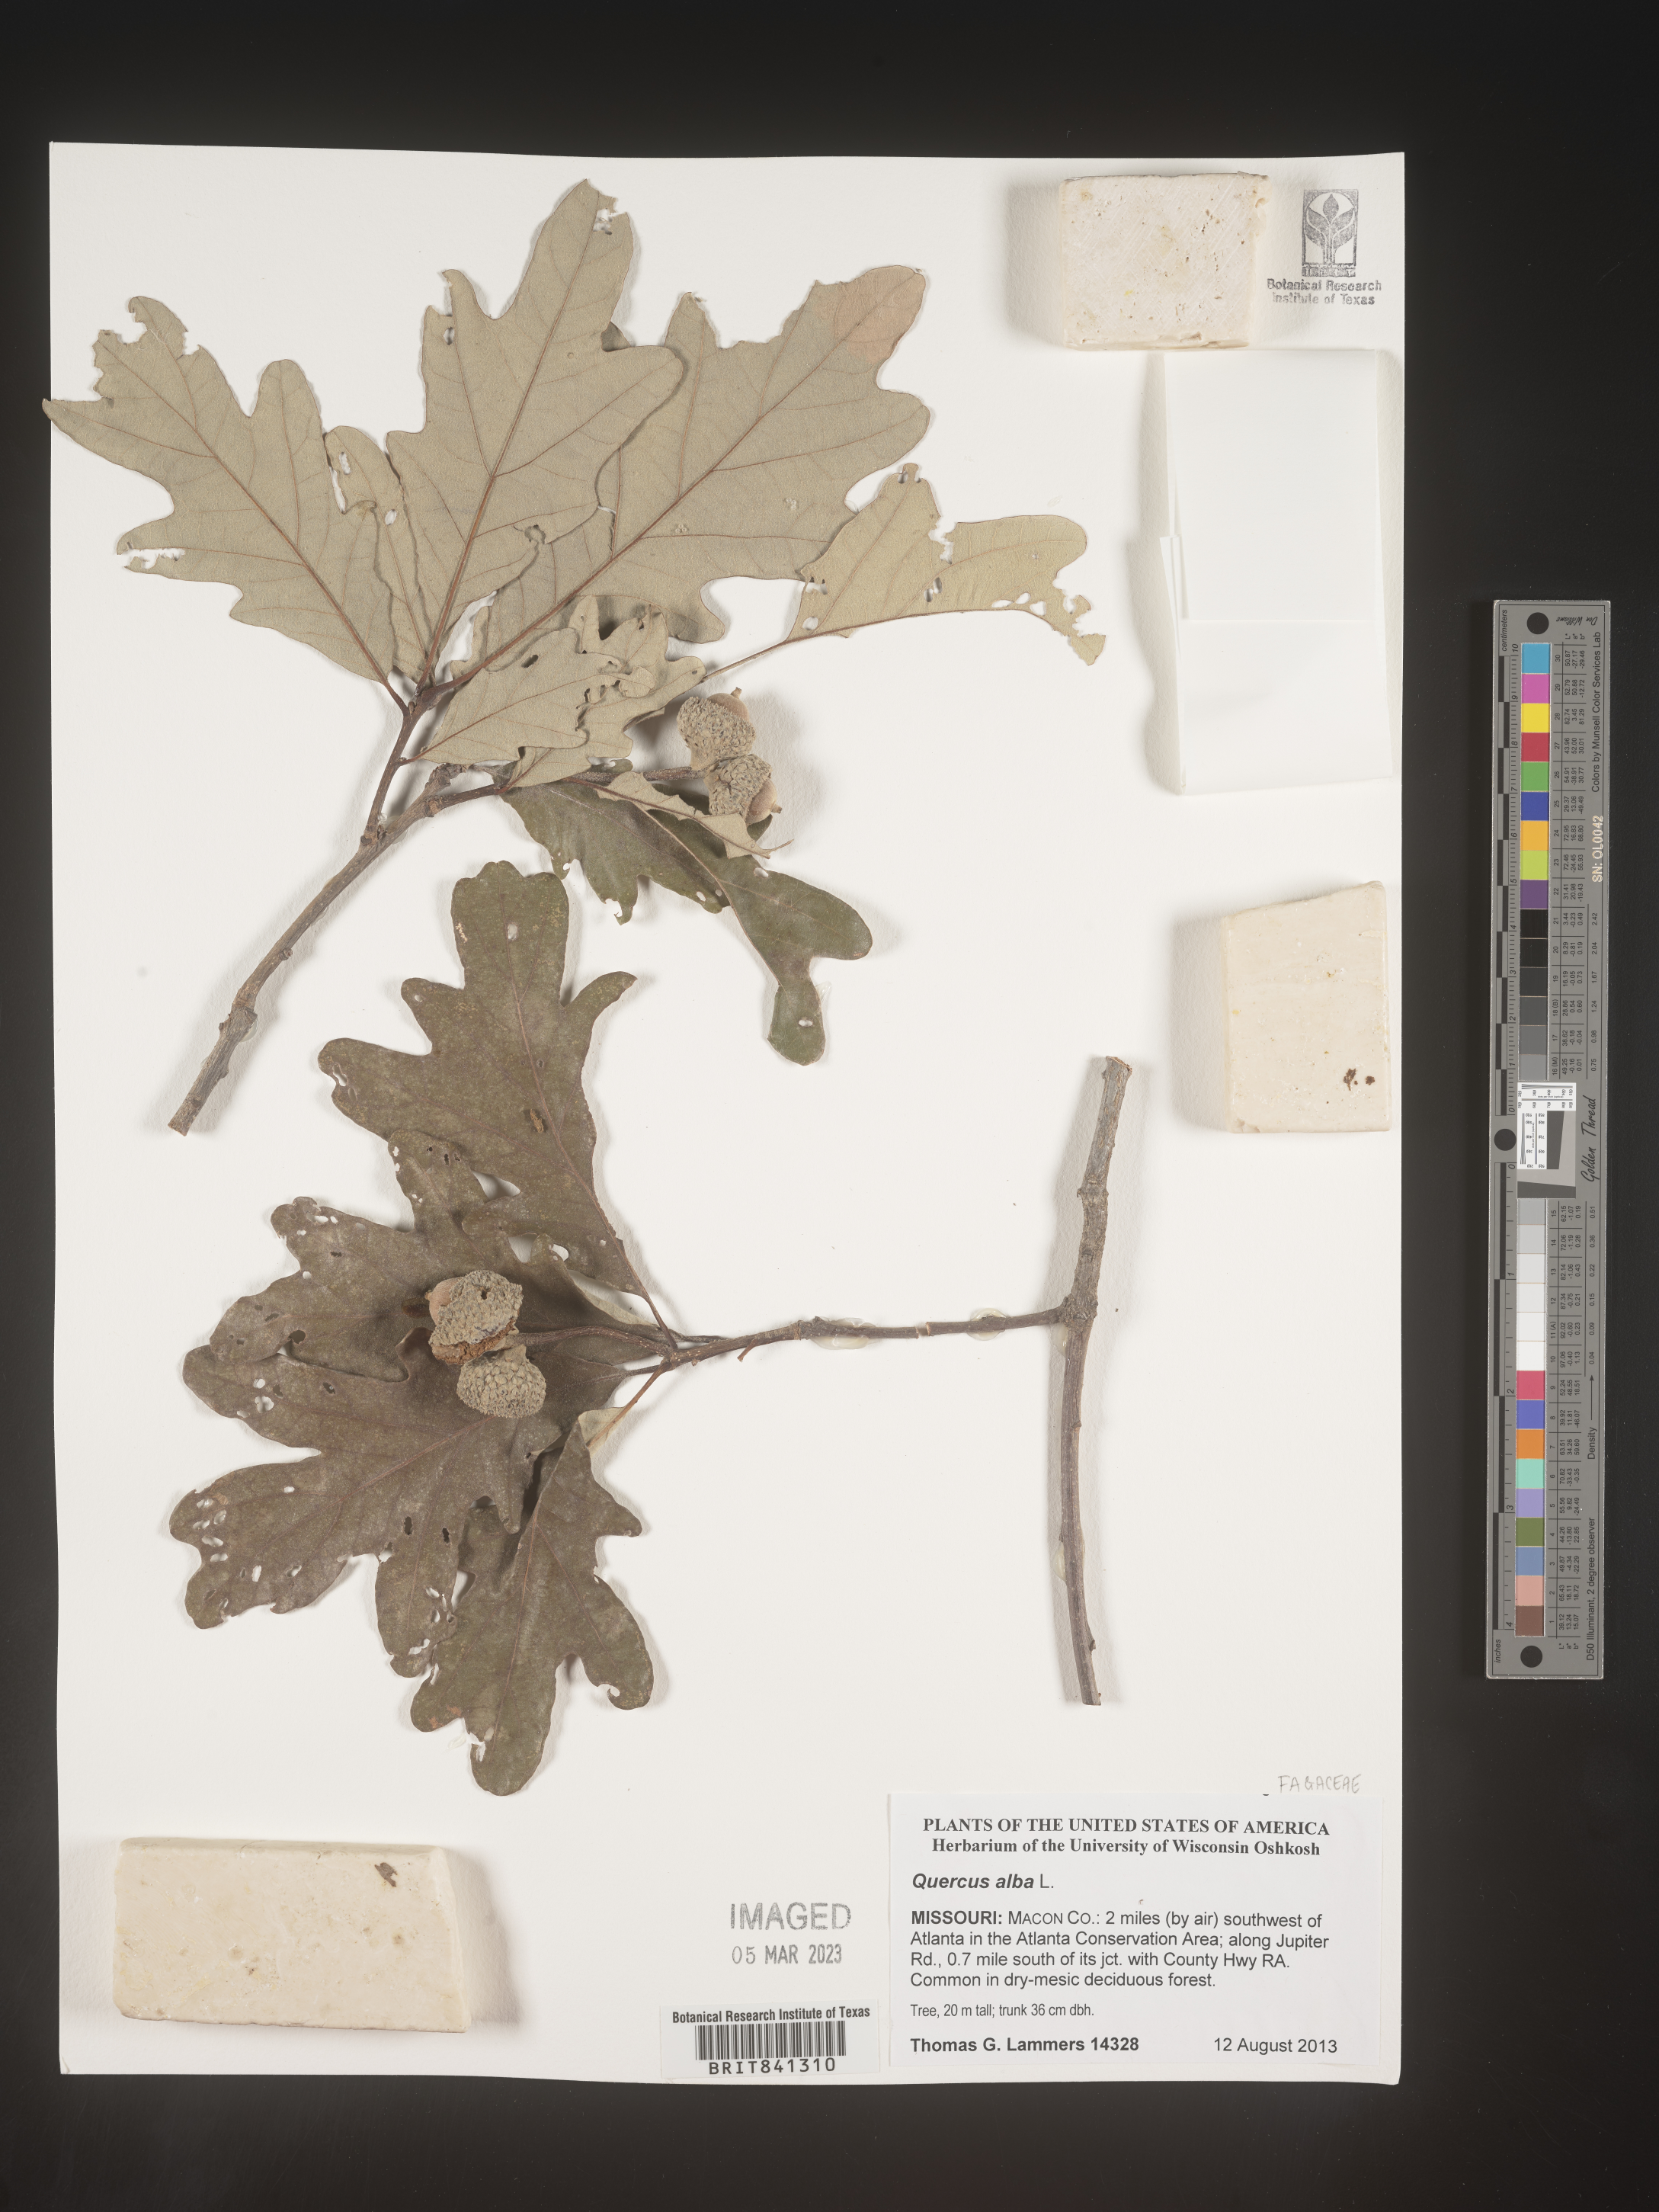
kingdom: Plantae
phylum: Tracheophyta
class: Magnoliopsida
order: Fagales
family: Fagaceae
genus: Quercus
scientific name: Quercus alba
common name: White oak
